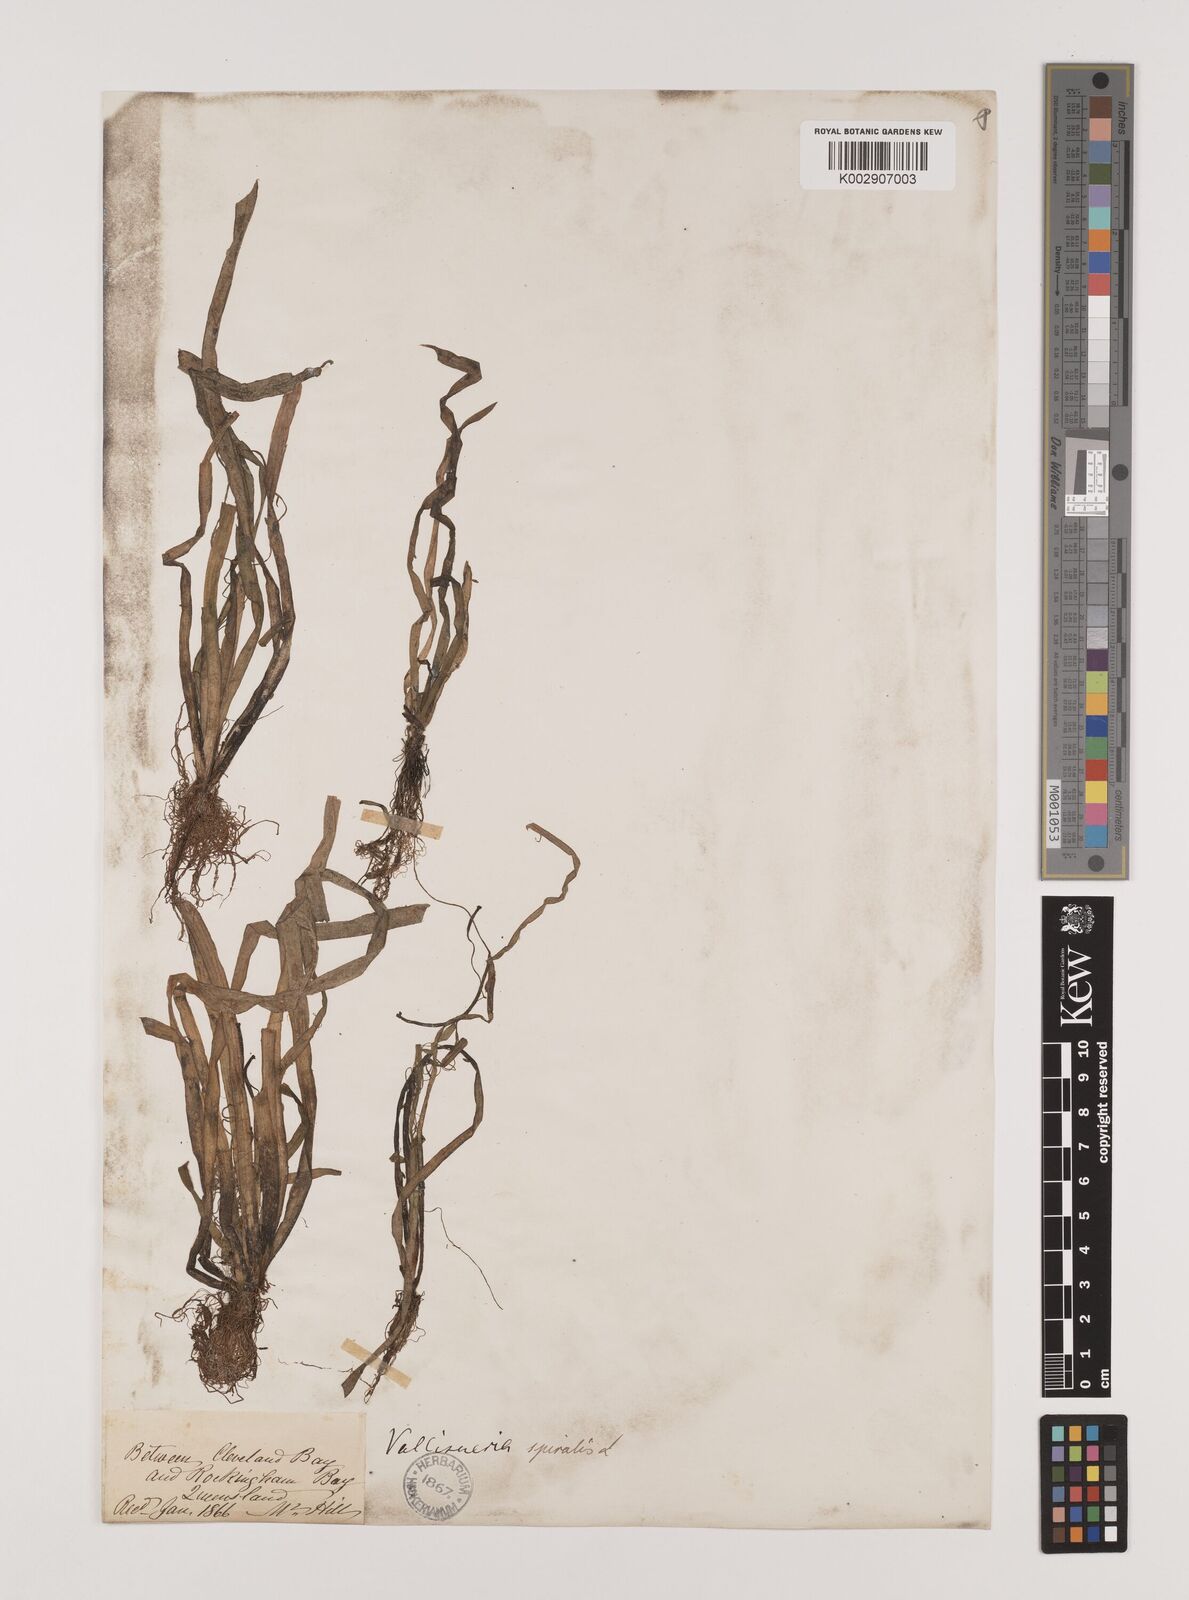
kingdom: Plantae
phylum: Tracheophyta
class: Liliopsida
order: Alismatales
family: Hydrocharitaceae
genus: Vallisneria
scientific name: Vallisneria spiralis
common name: Tapegrass
